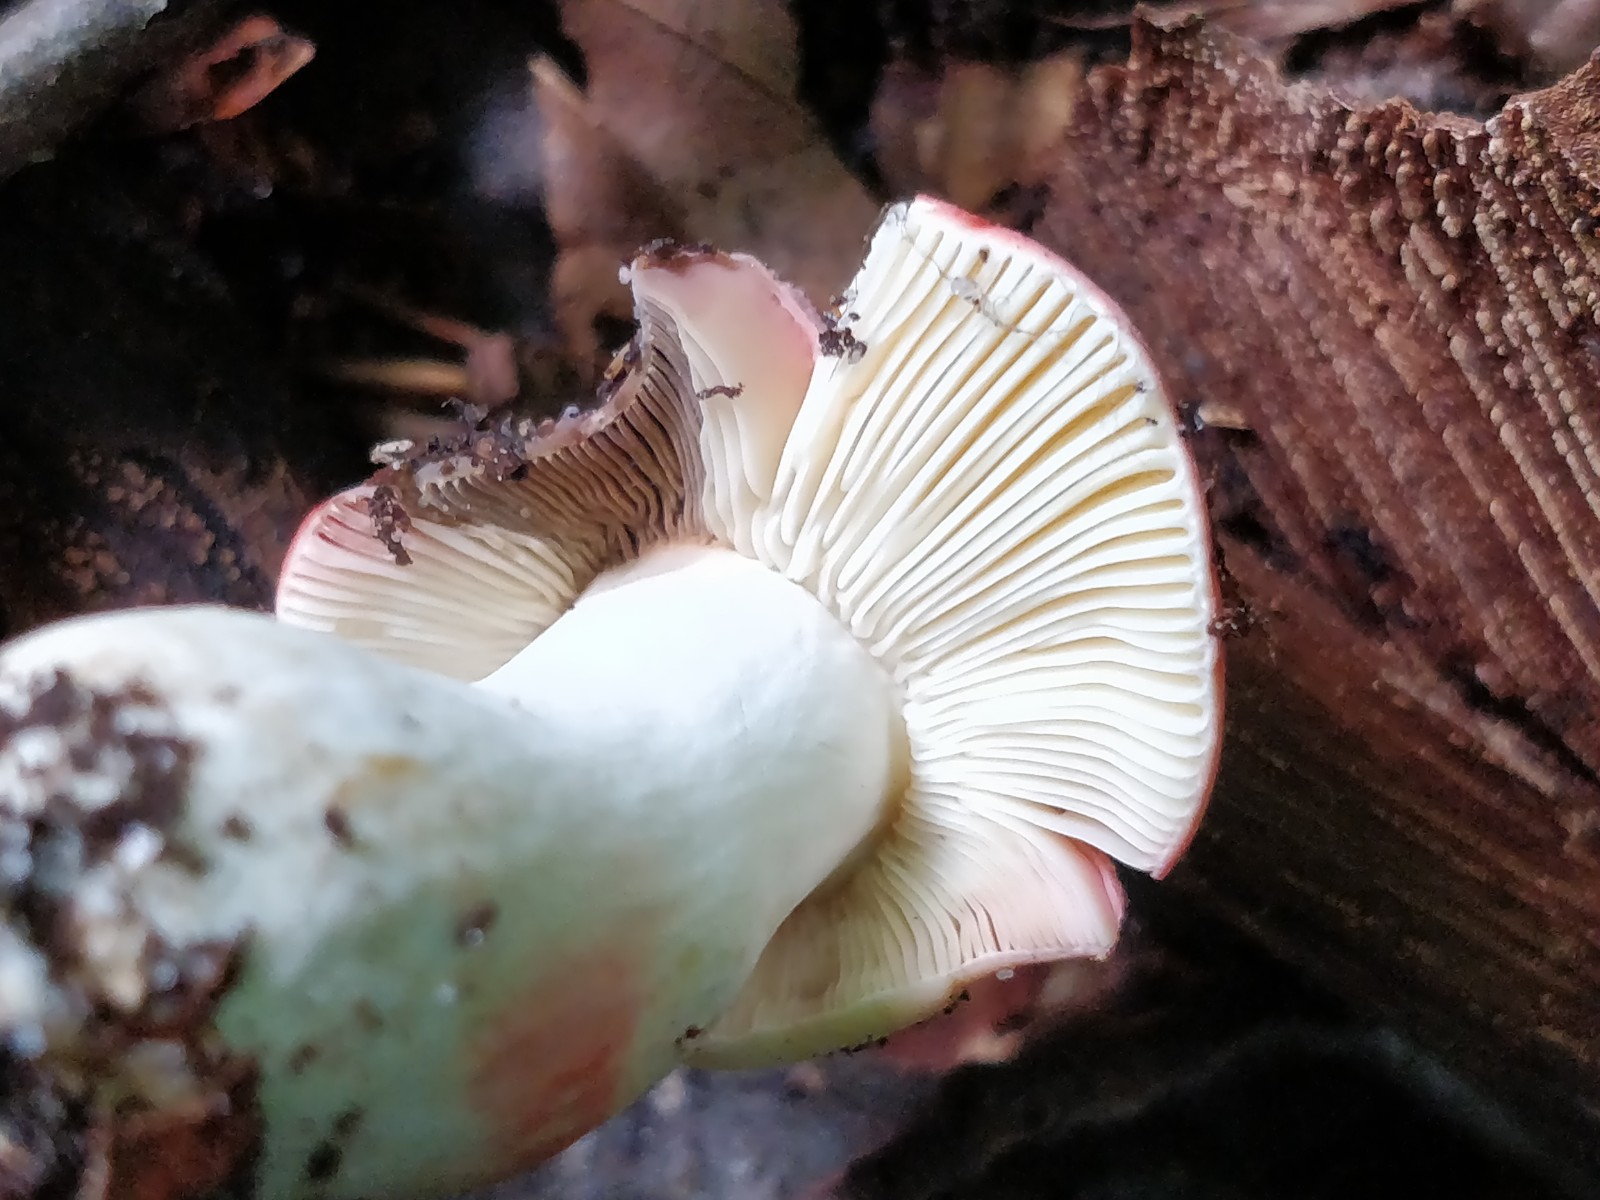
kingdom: Fungi
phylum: Basidiomycota
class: Agaricomycetes
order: Russulales
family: Russulaceae
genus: Russula
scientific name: Russula rosea
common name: fastkødet skørhat
